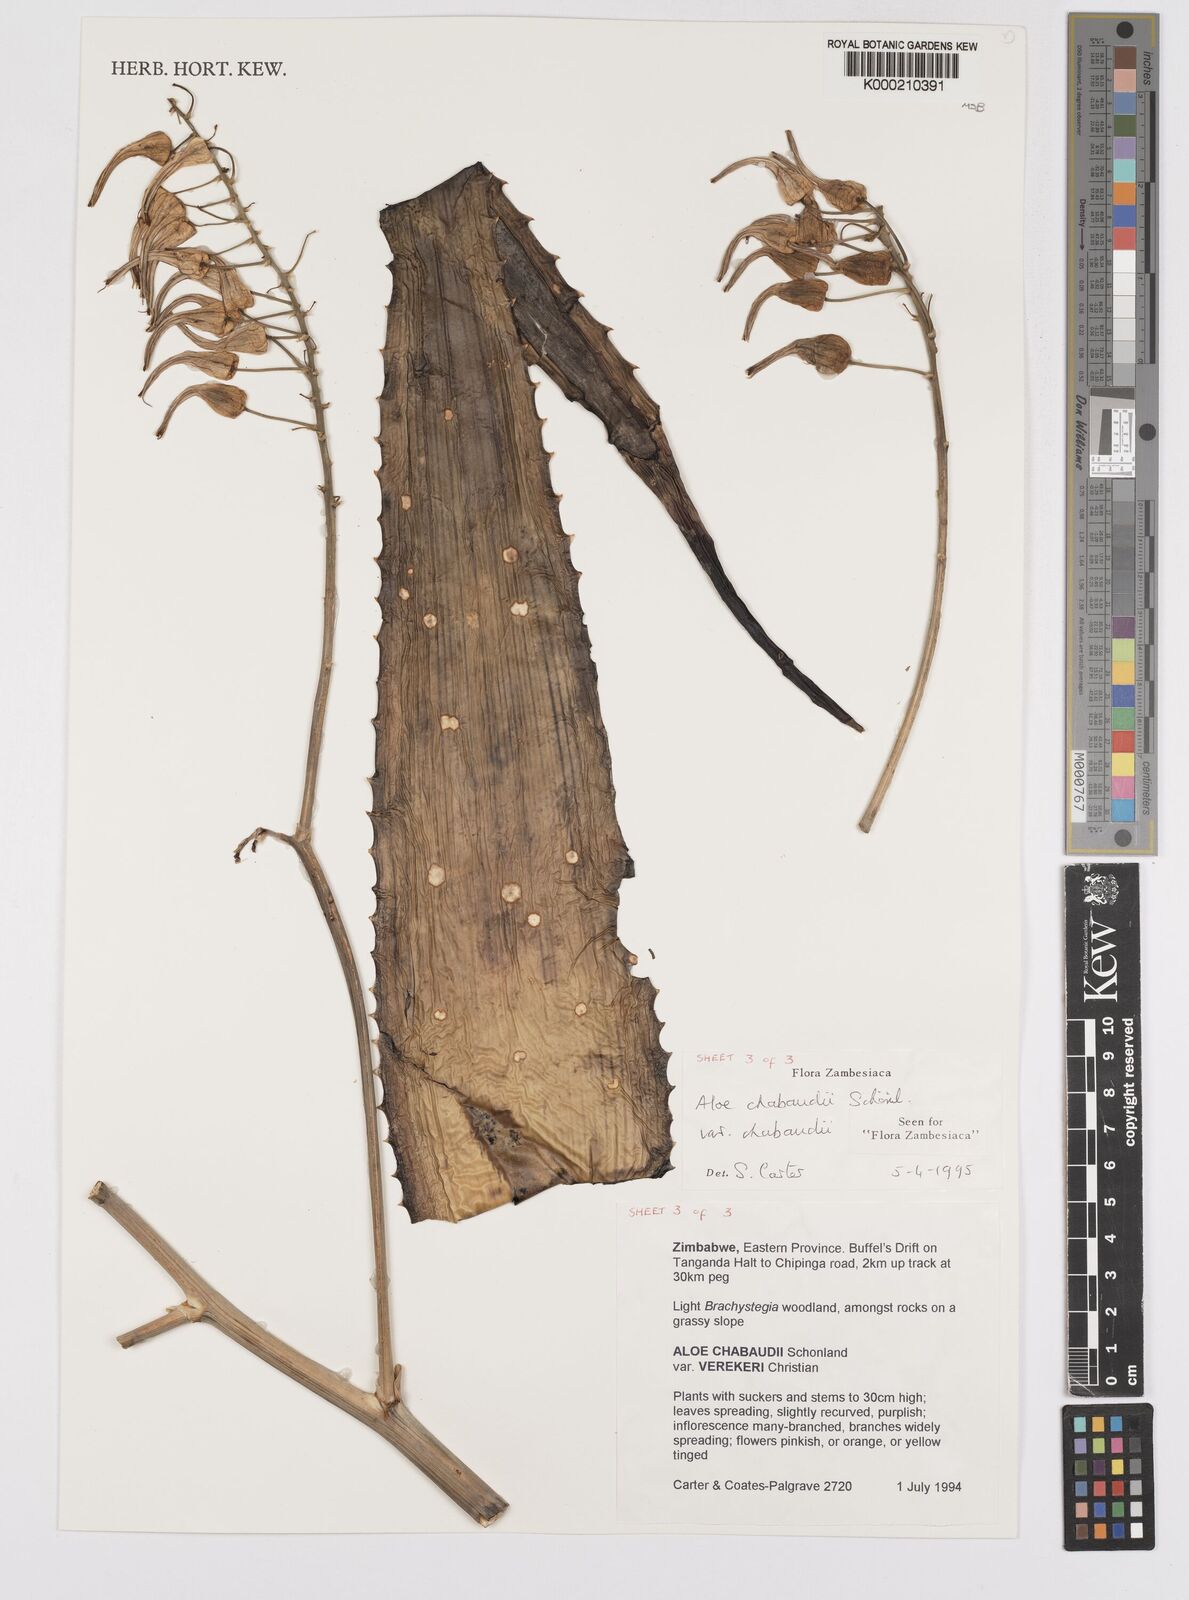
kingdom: Plantae
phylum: Tracheophyta
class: Liliopsida
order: Asparagales
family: Asphodelaceae
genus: Aloe
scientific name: Aloe chabaudii
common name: Chabaud's aloe
